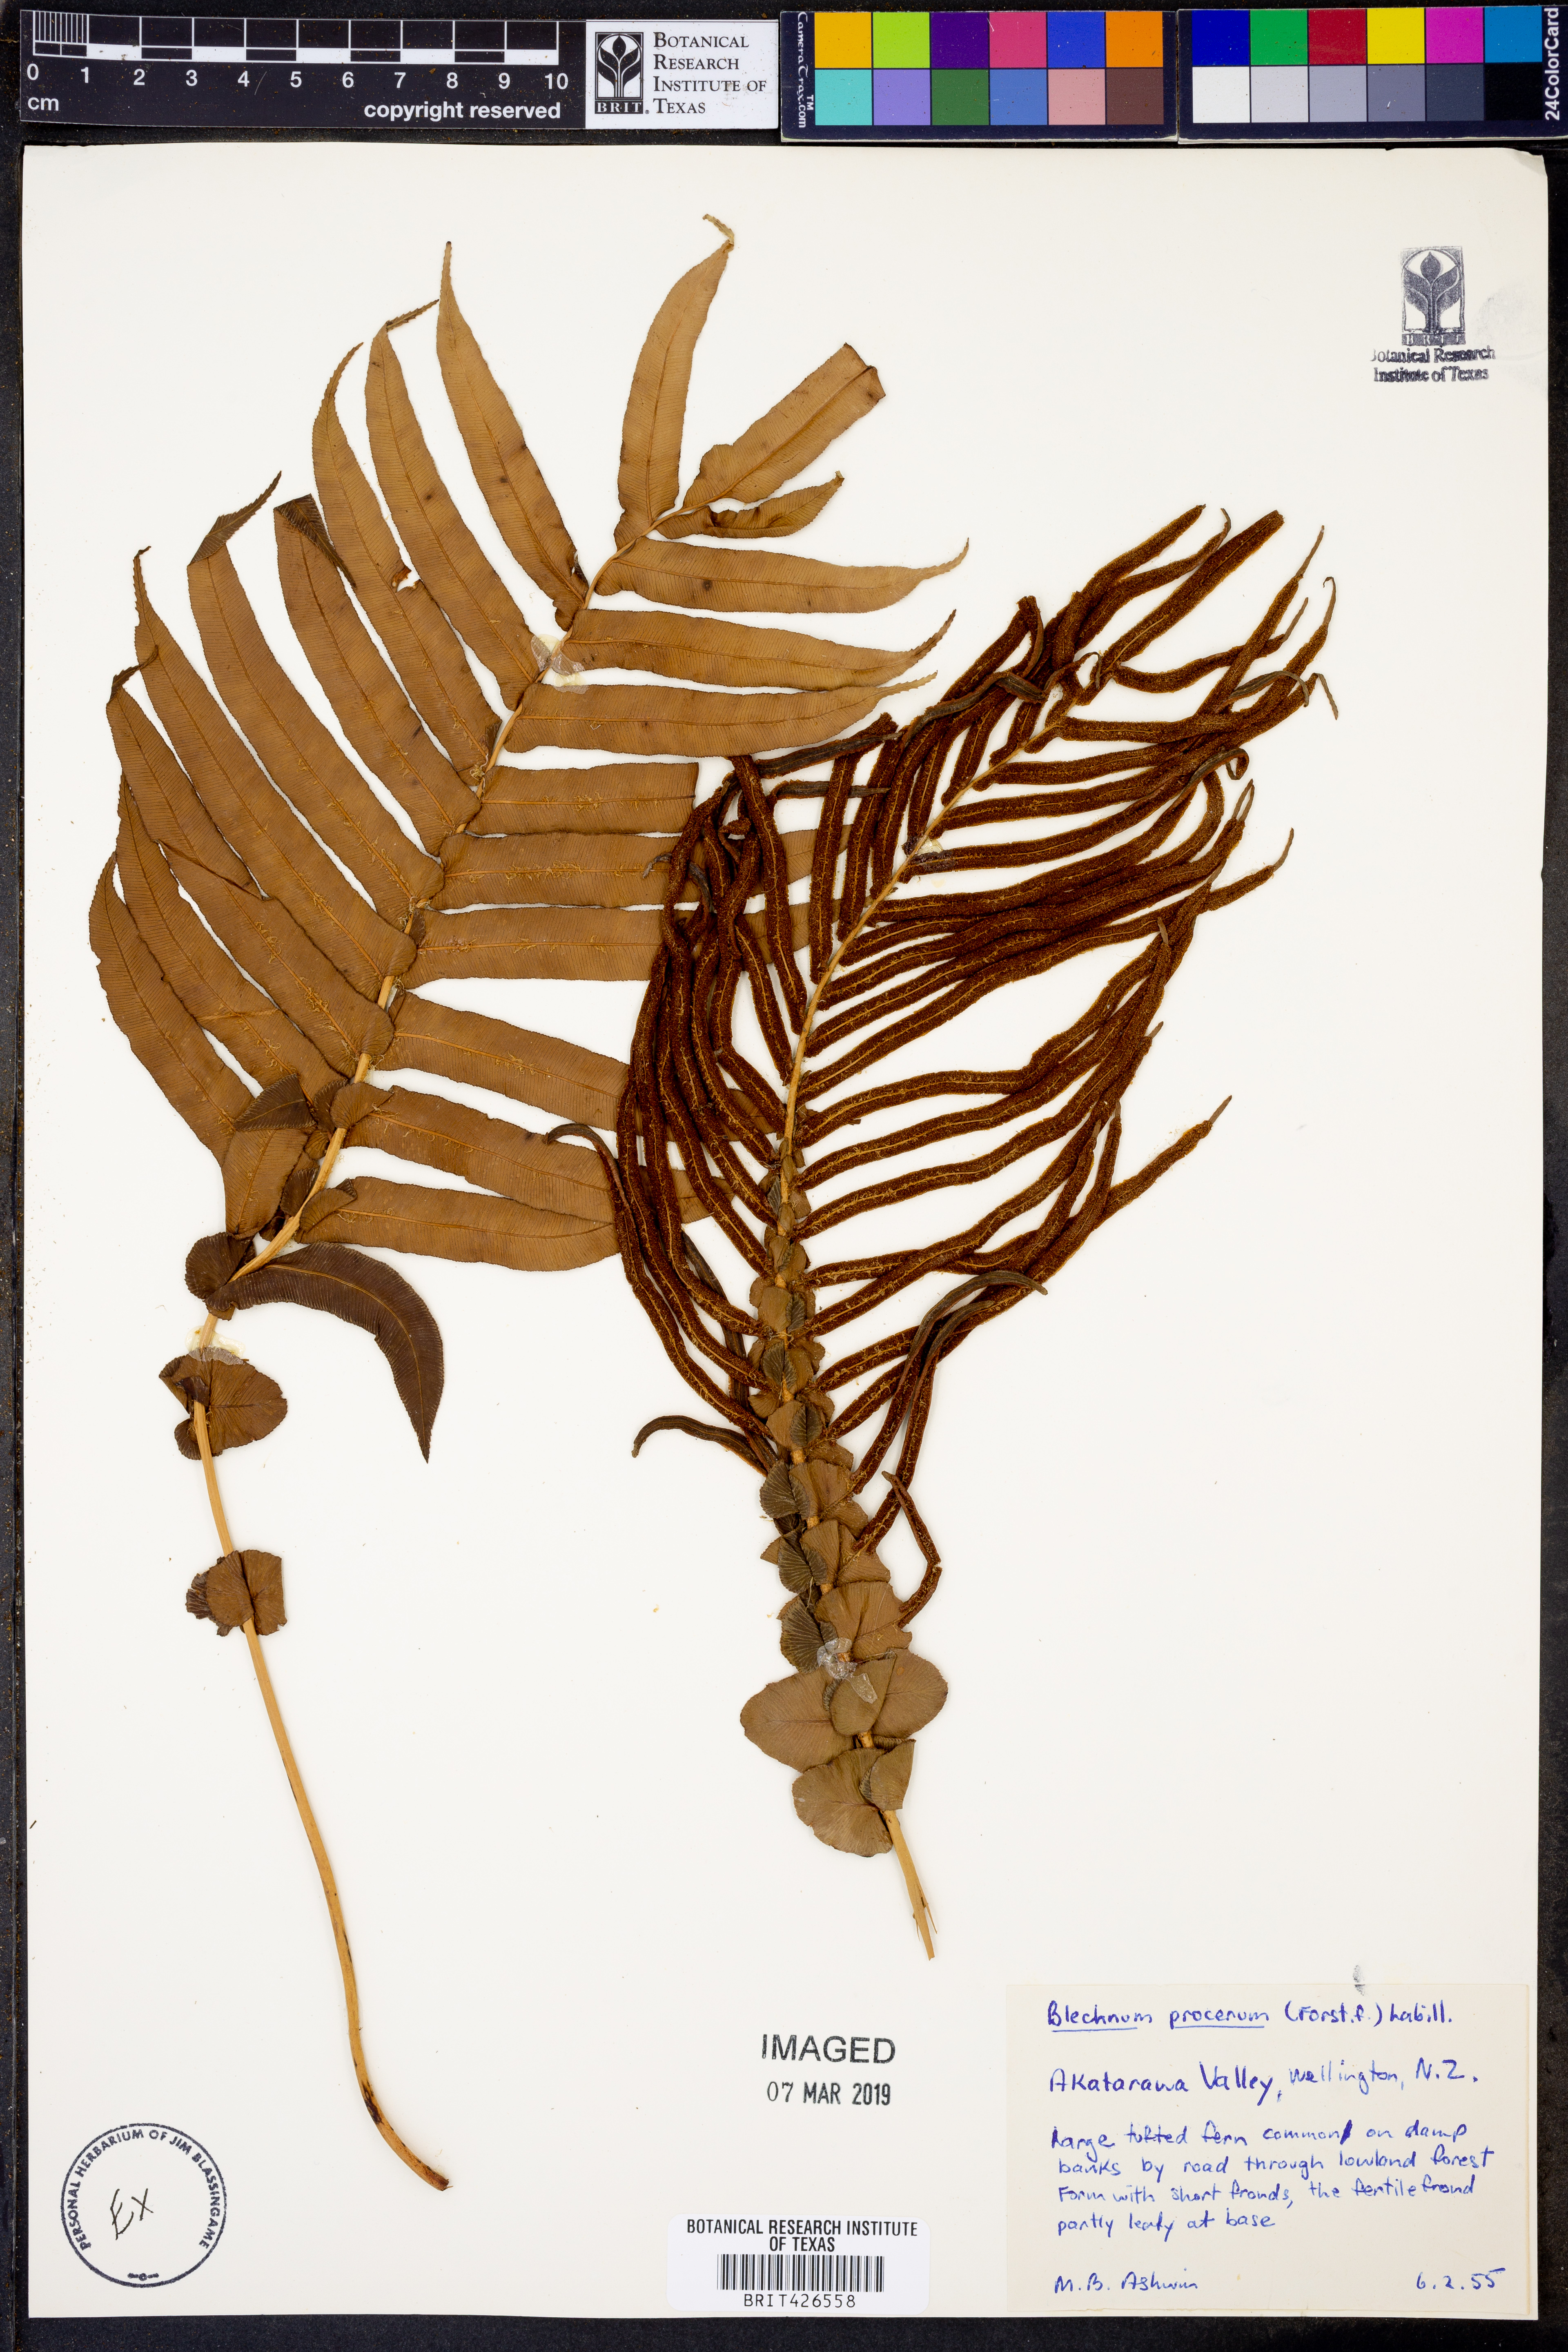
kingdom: Plantae
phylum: Tracheophyta
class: Polypodiopsida
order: Polypodiales
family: Blechnaceae
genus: Parablechnum
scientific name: Parablechnum procerum
